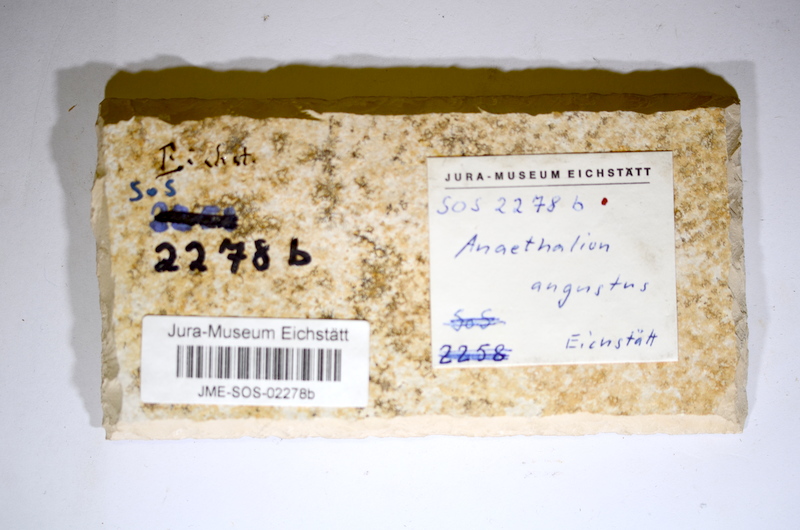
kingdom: Animalia
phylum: Chordata
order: Elopiformes
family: Anaethalionidae
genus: Anaethalion
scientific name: Anaethalion angustus
